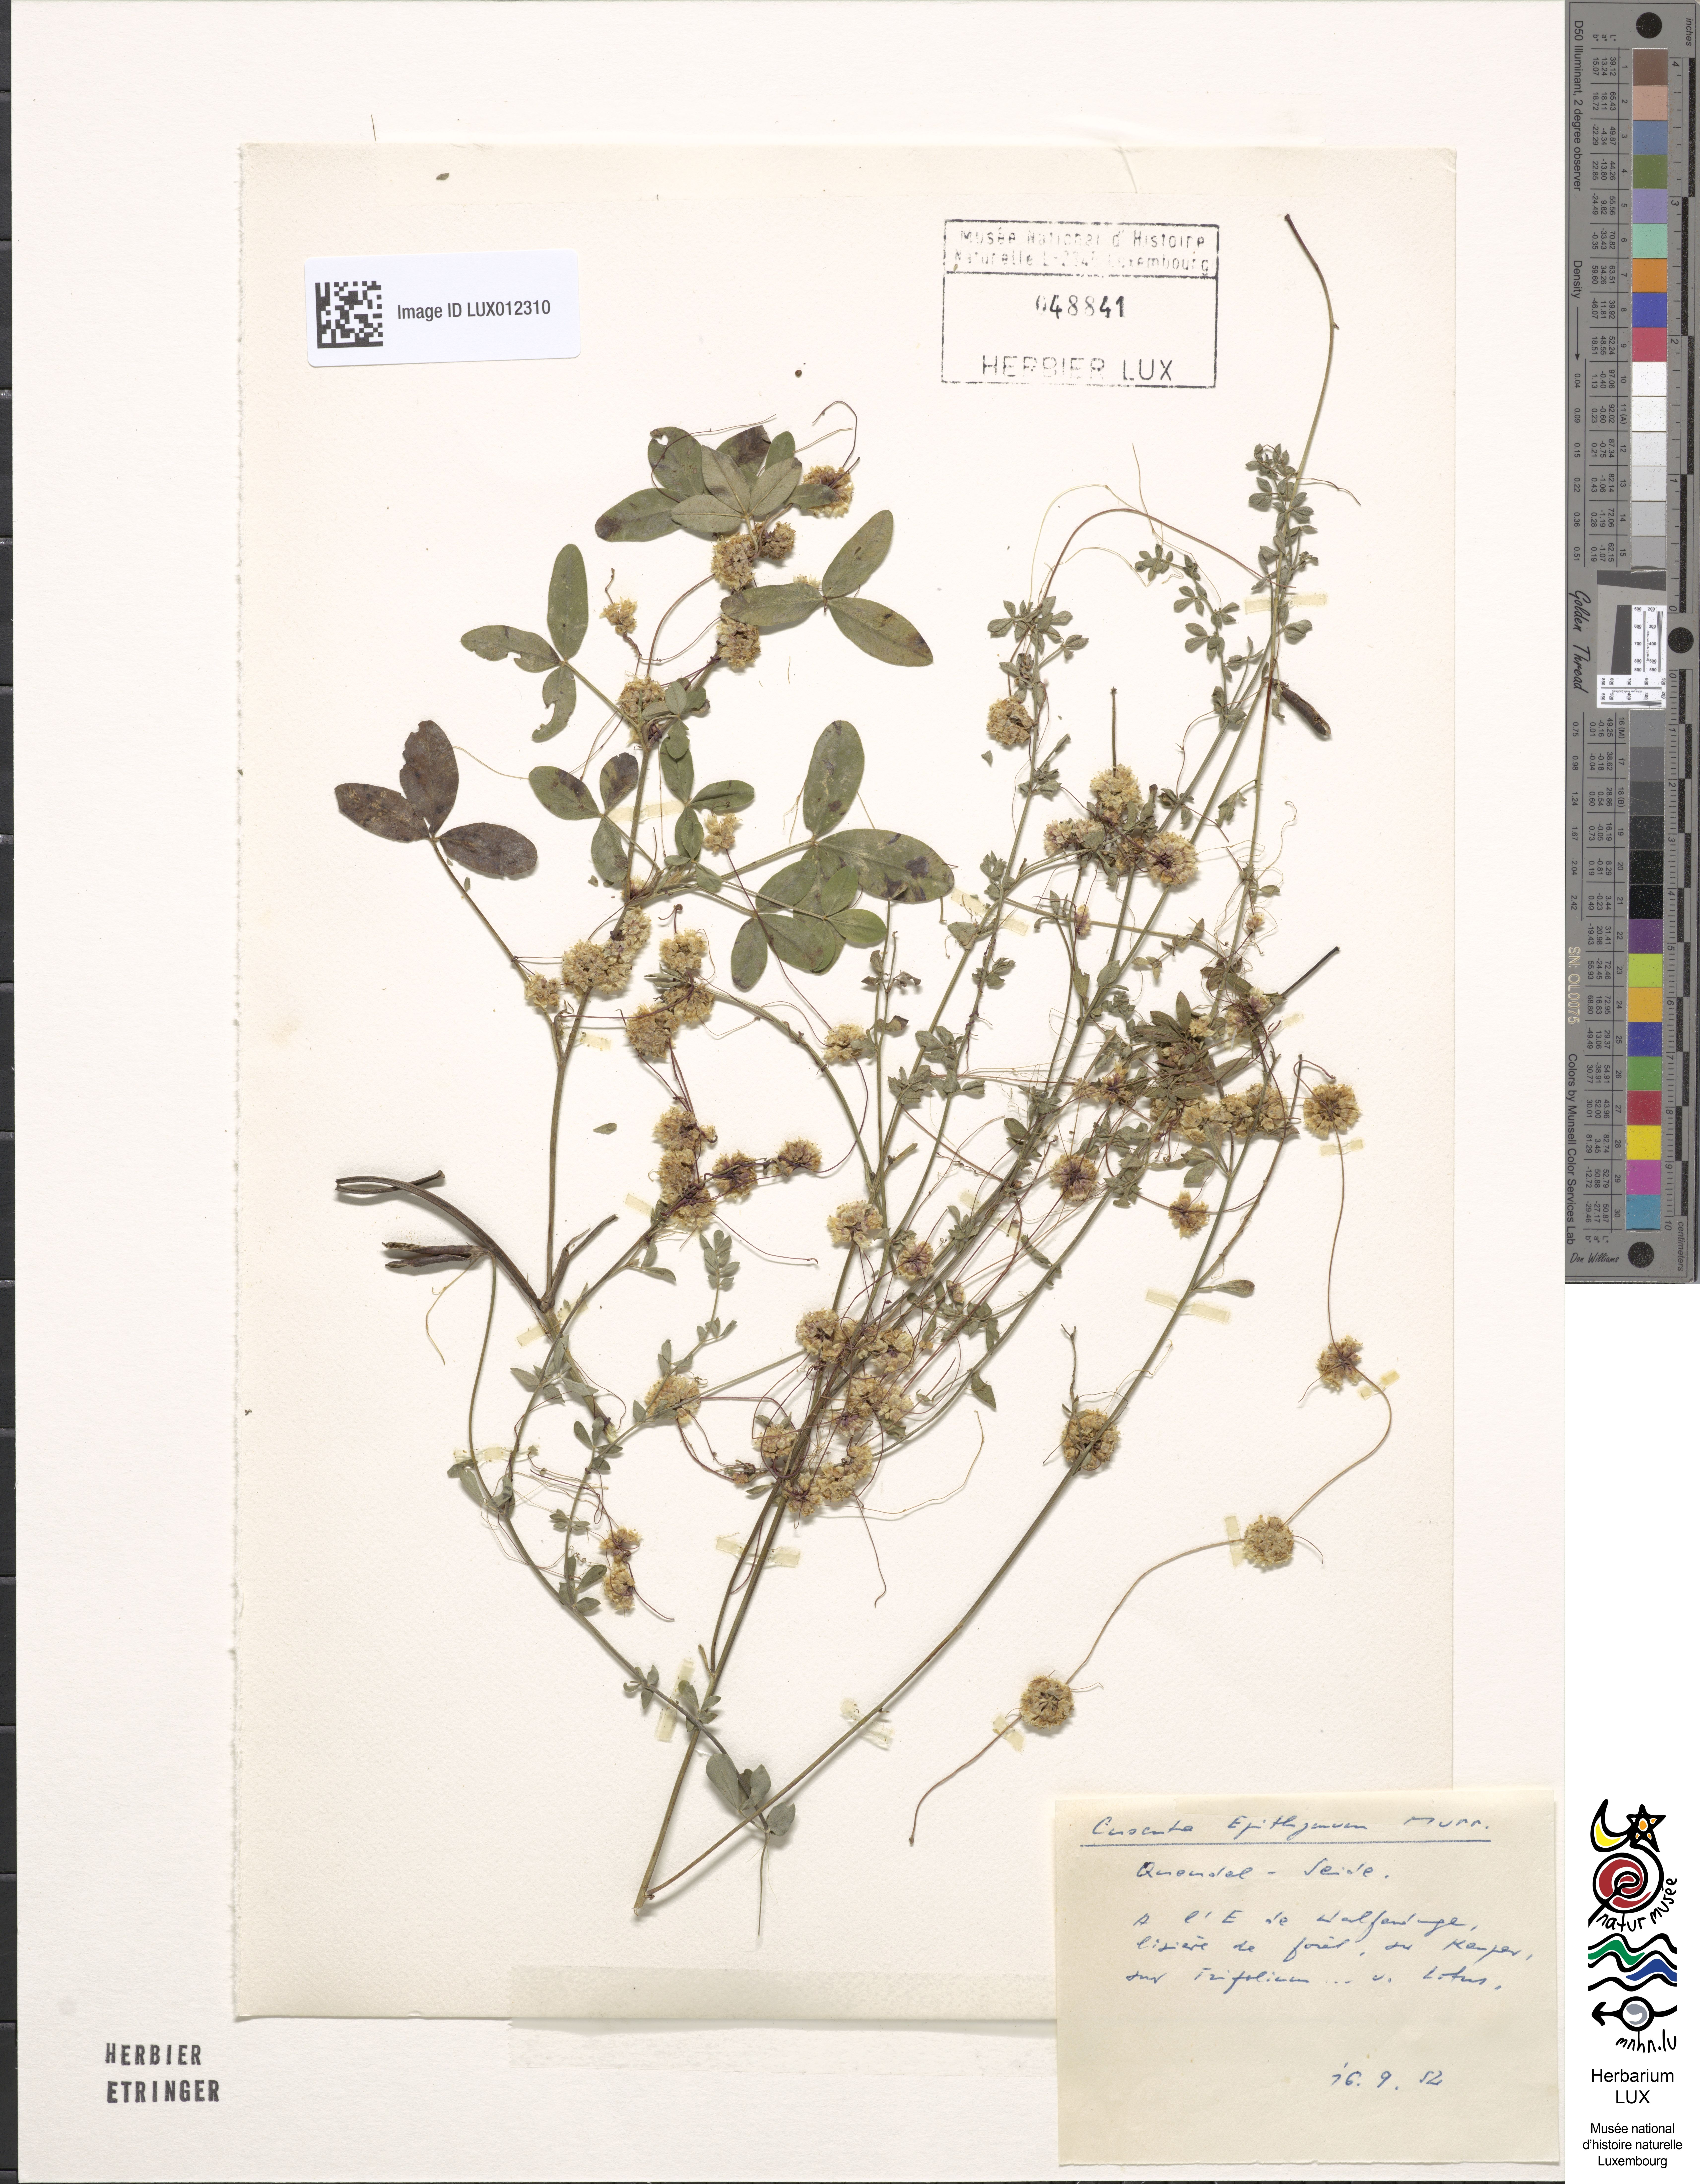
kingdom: Plantae
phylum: Tracheophyta
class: Magnoliopsida
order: Solanales
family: Convolvulaceae
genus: Cuscuta
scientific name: Cuscuta epithymum
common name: Clover dodder
